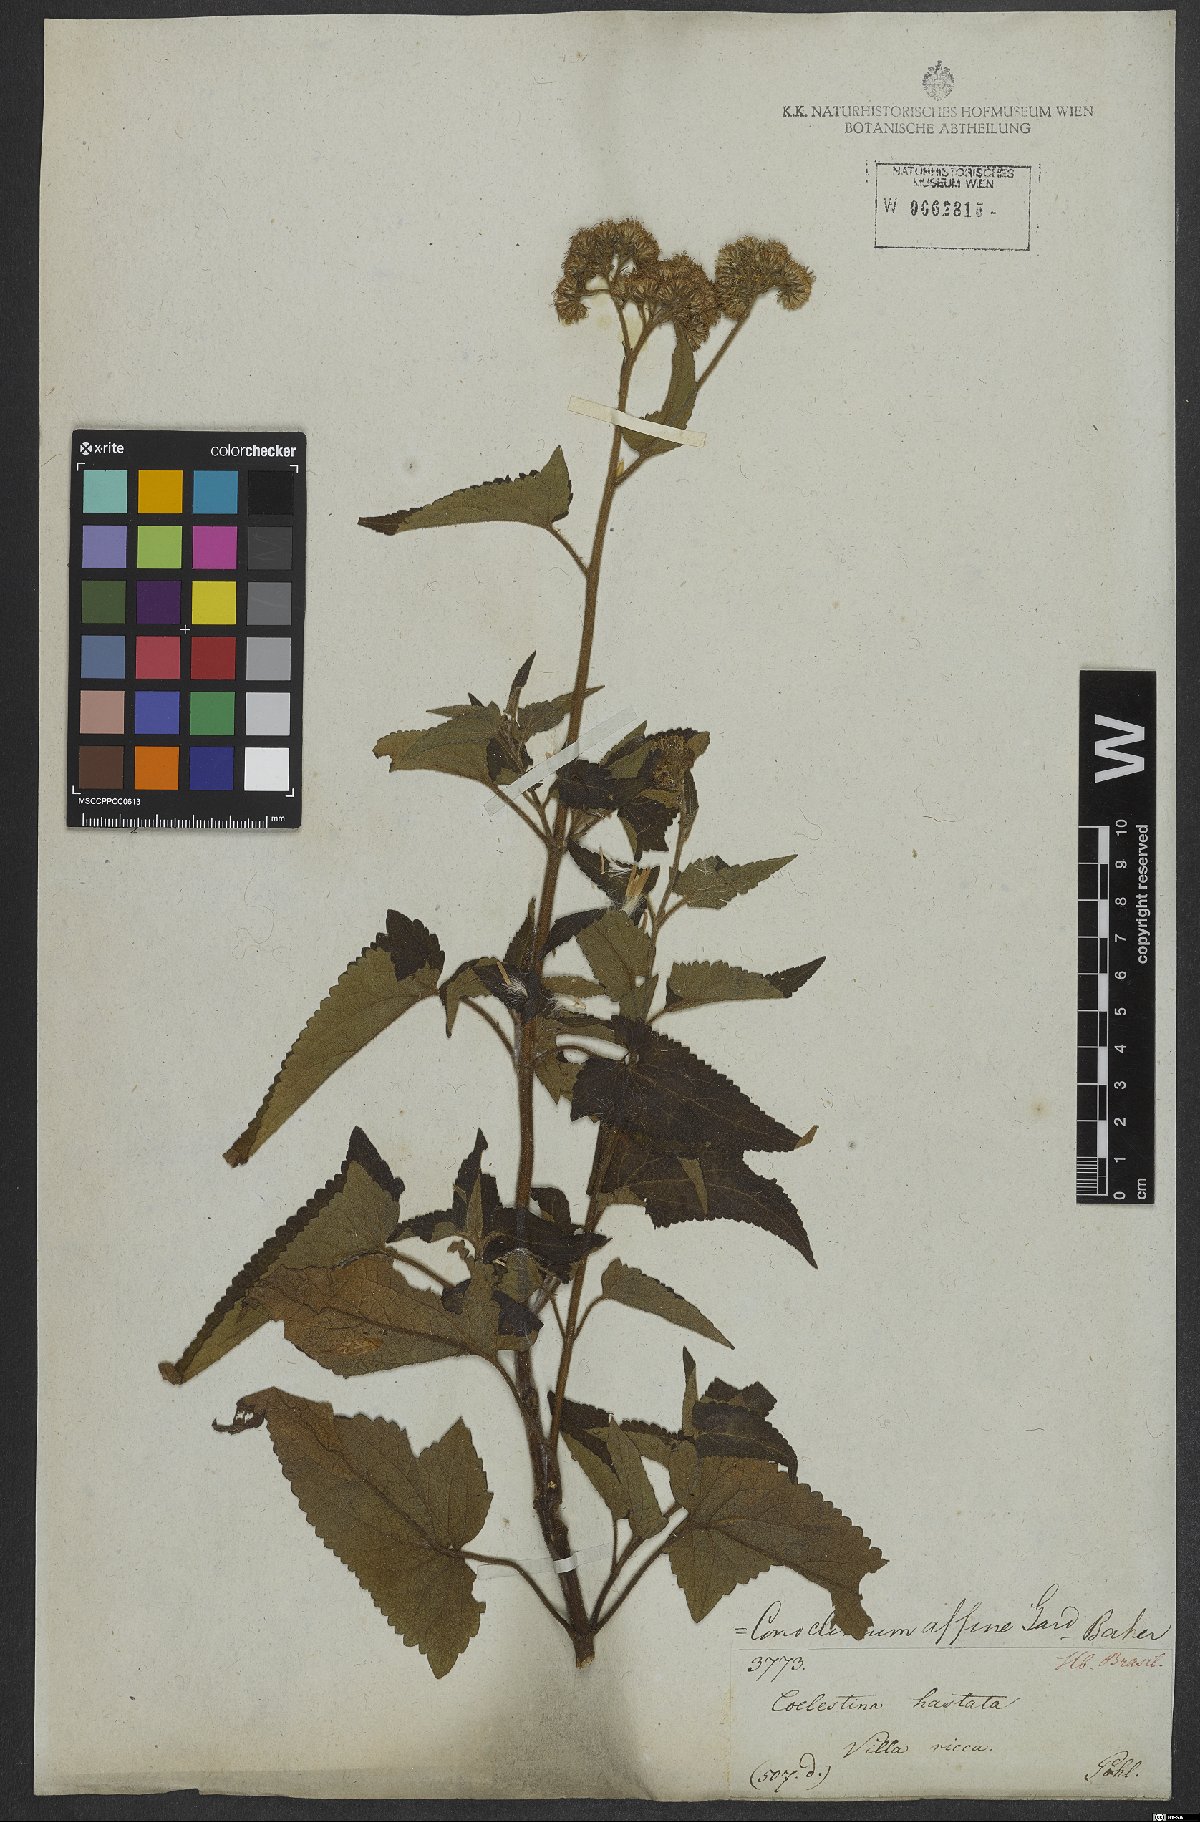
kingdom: Plantae
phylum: Tracheophyta
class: Magnoliopsida
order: Asterales
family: Asteraceae
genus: Barrosoa
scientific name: Barrosoa betoniciformis
